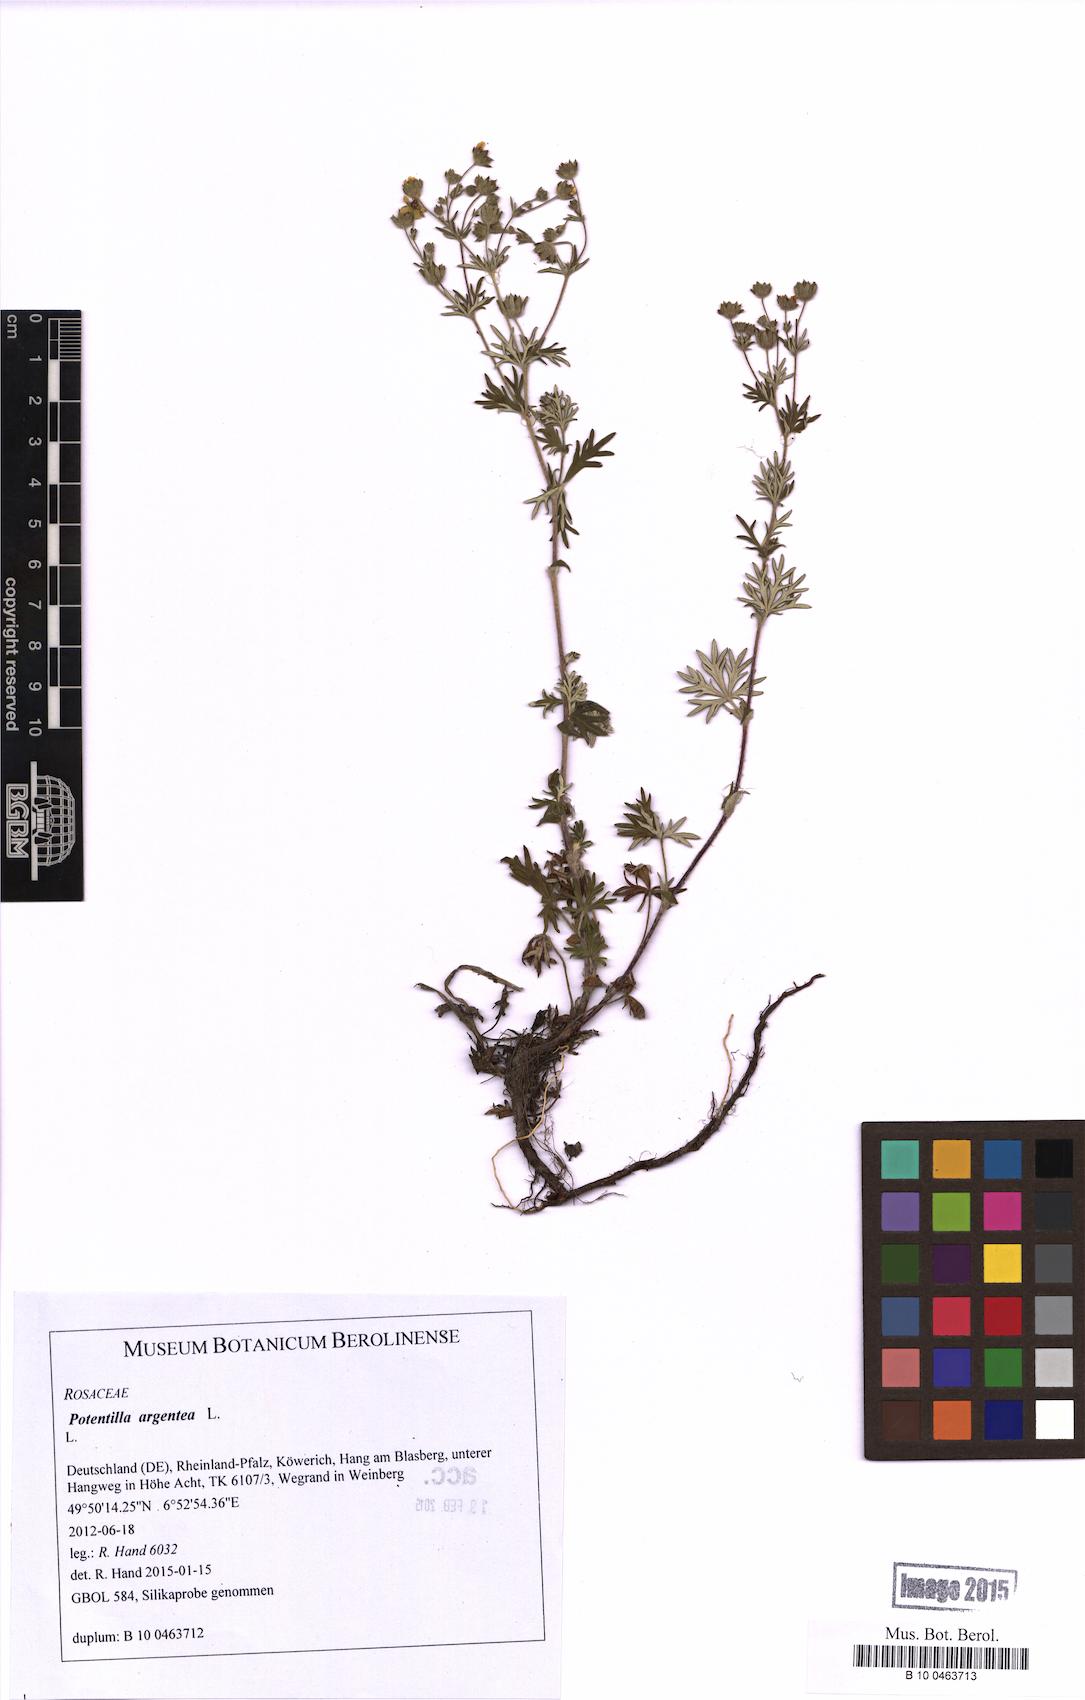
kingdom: Plantae
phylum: Tracheophyta
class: Magnoliopsida
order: Rosales
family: Rosaceae
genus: Potentilla
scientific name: Potentilla argentea
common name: Hoary cinquefoil
